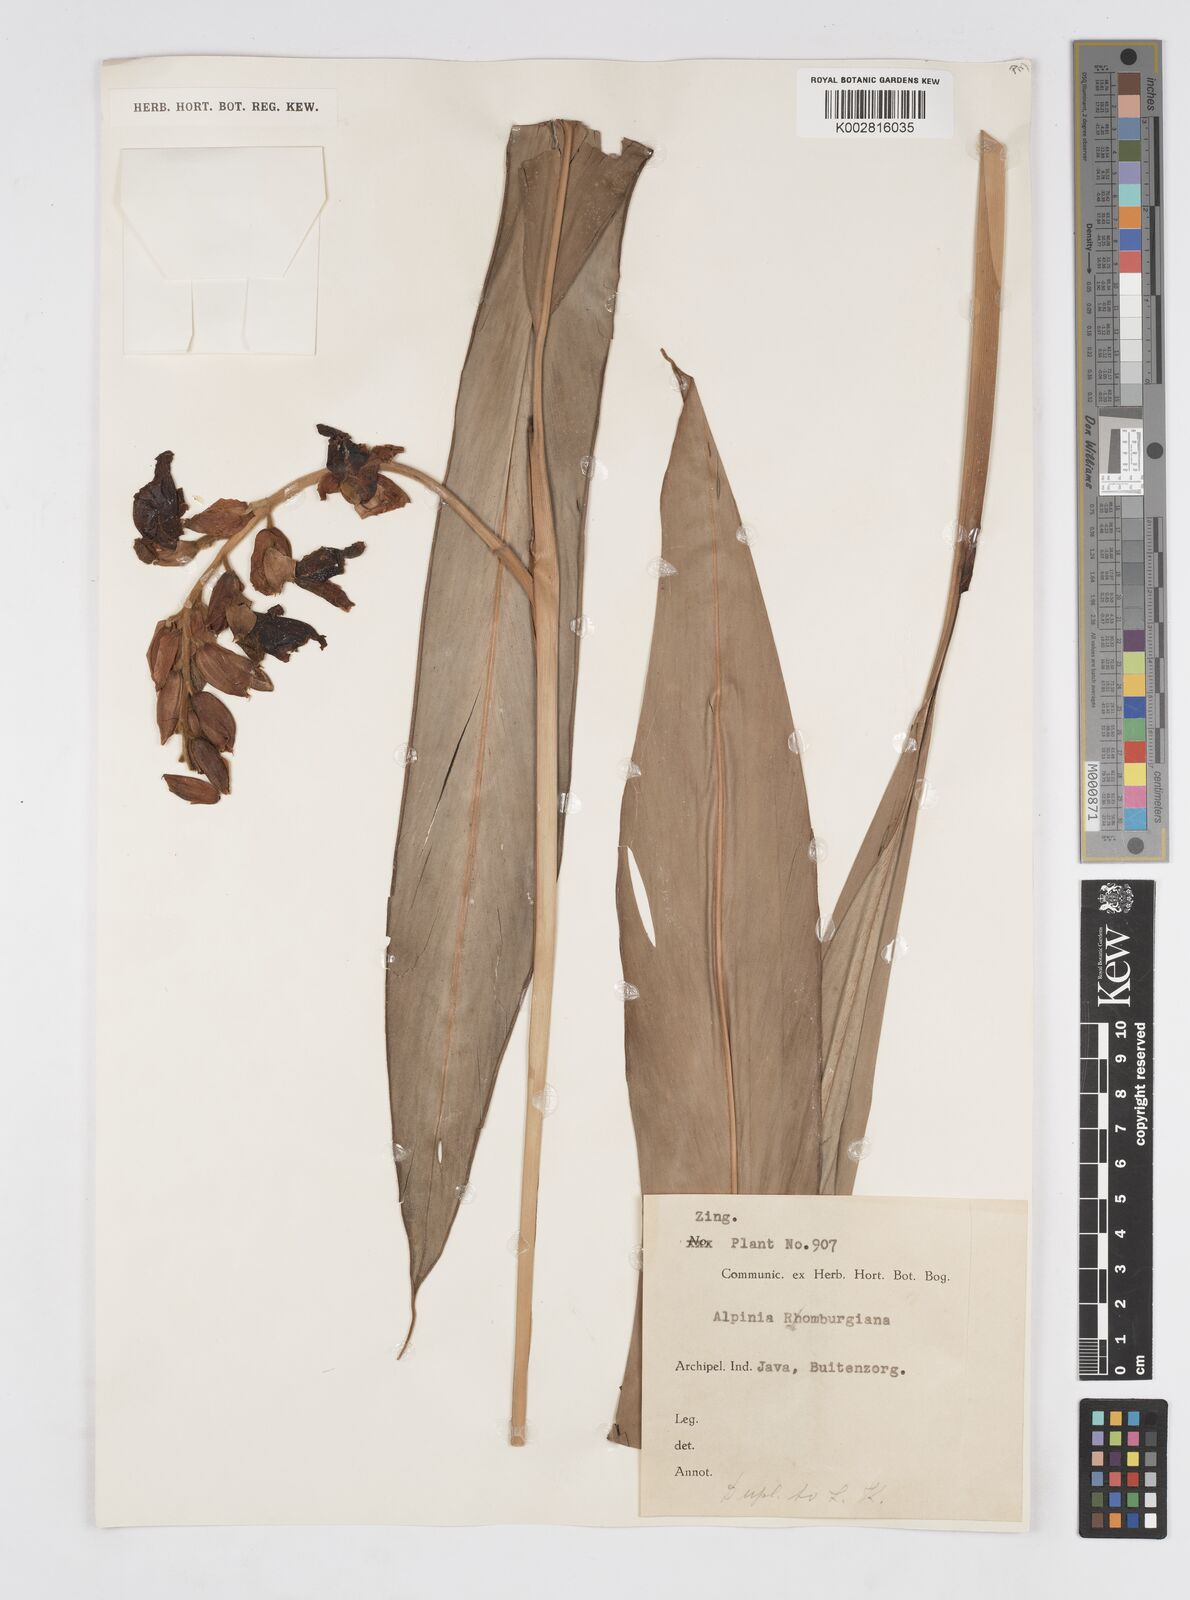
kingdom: Plantae
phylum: Tracheophyta
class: Liliopsida
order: Zingiberales
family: Zingiberaceae
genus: Alpinia
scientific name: Alpinia romburghiana
